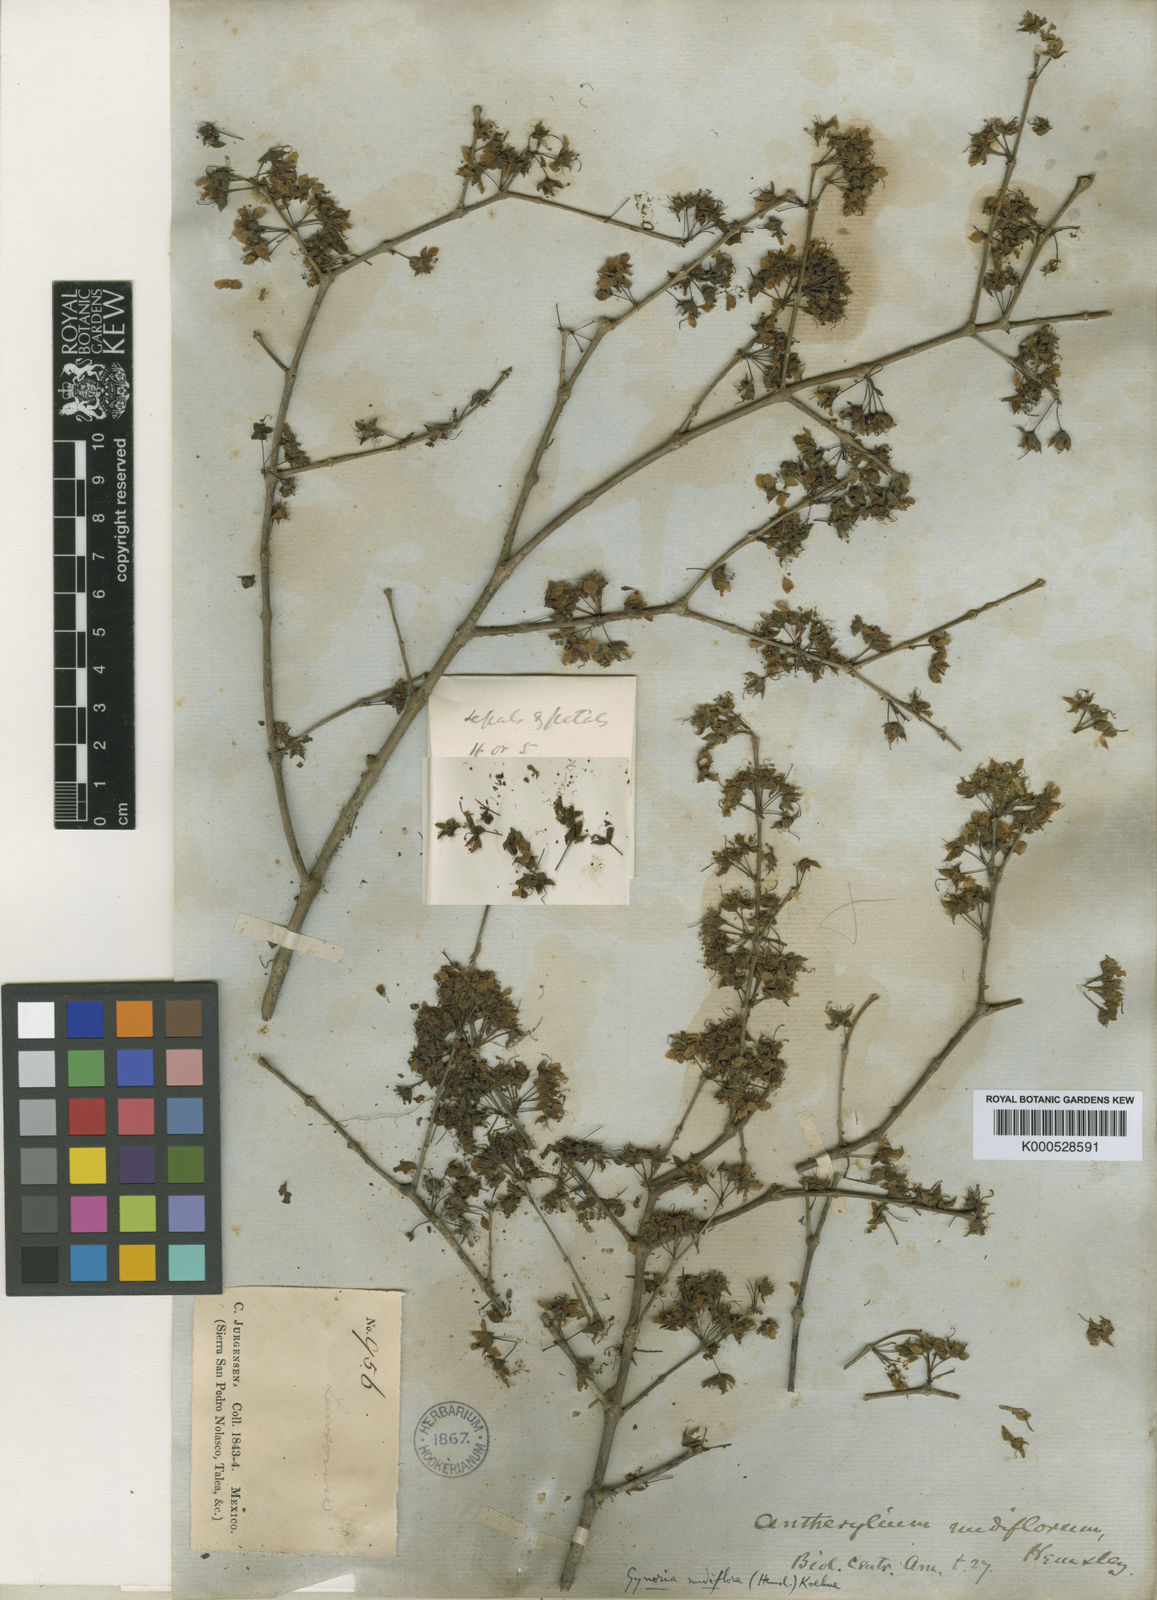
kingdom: Plantae
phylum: Tracheophyta
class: Magnoliopsida
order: Myrtales
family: Lythraceae
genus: Ginoria
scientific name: Ginoria nudiflora
